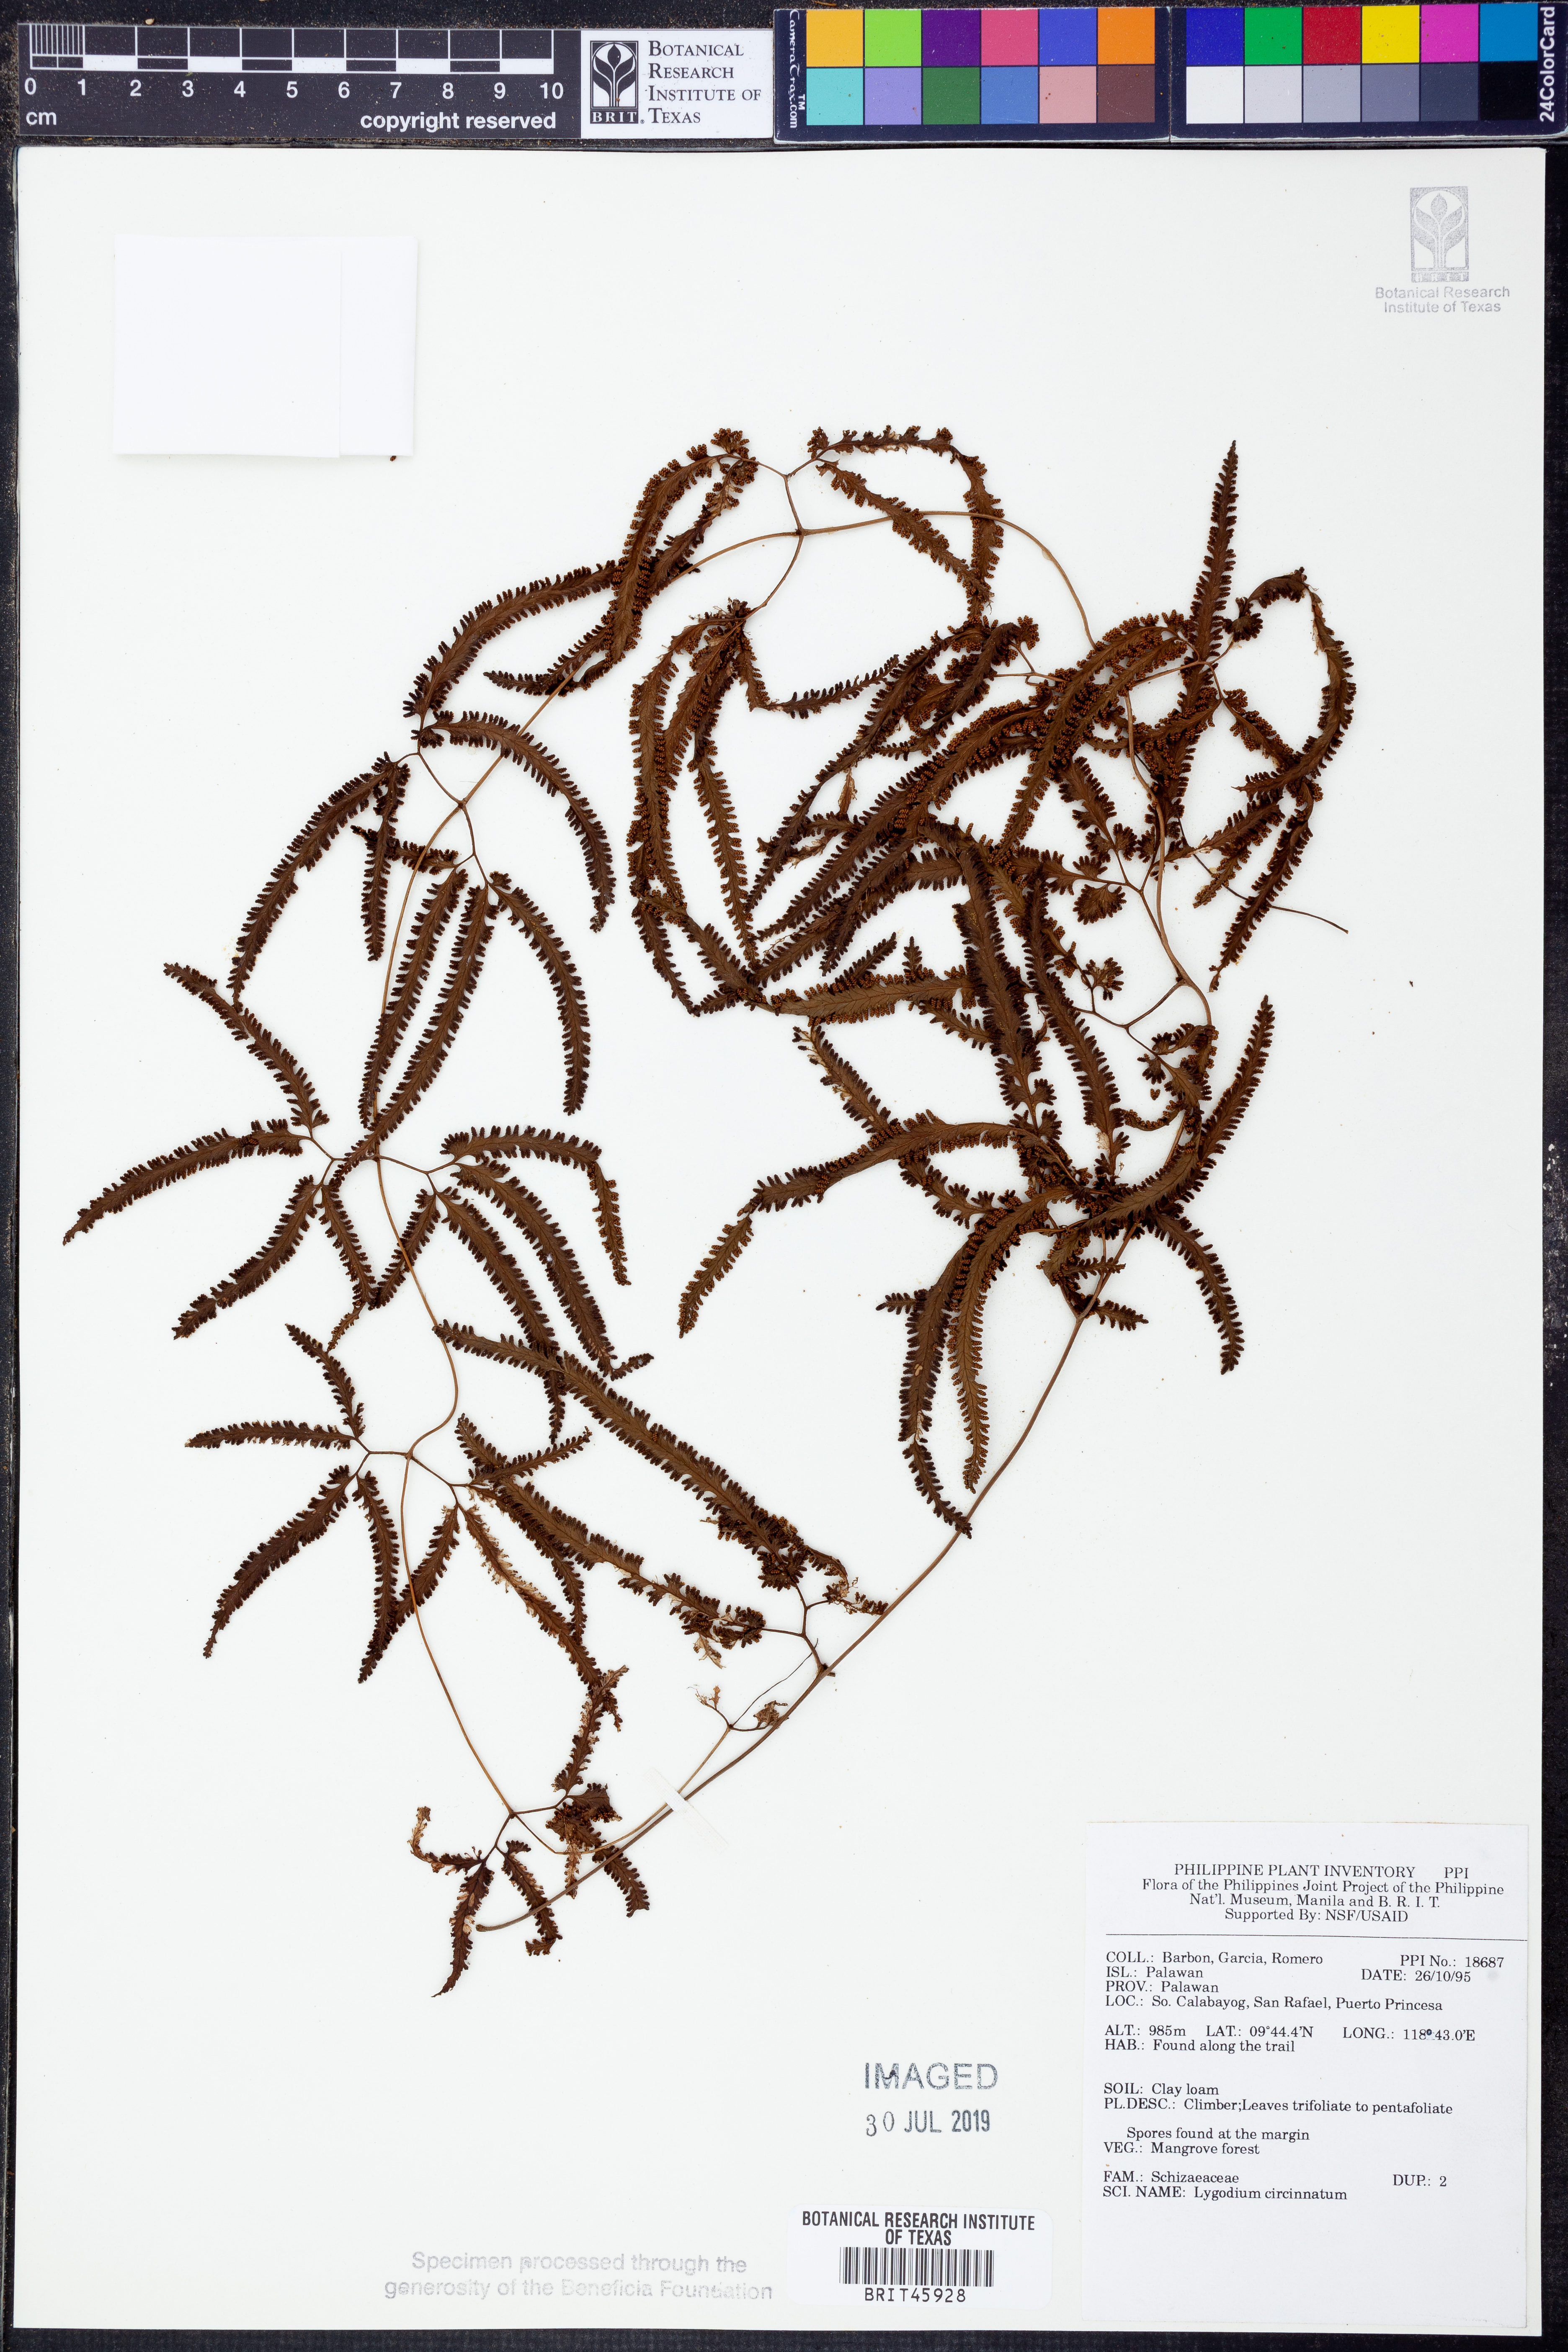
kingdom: Plantae
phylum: Tracheophyta
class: Polypodiopsida
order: Schizaeales
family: Lygodiaceae
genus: Lygodium
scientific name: Lygodium circinnatum
